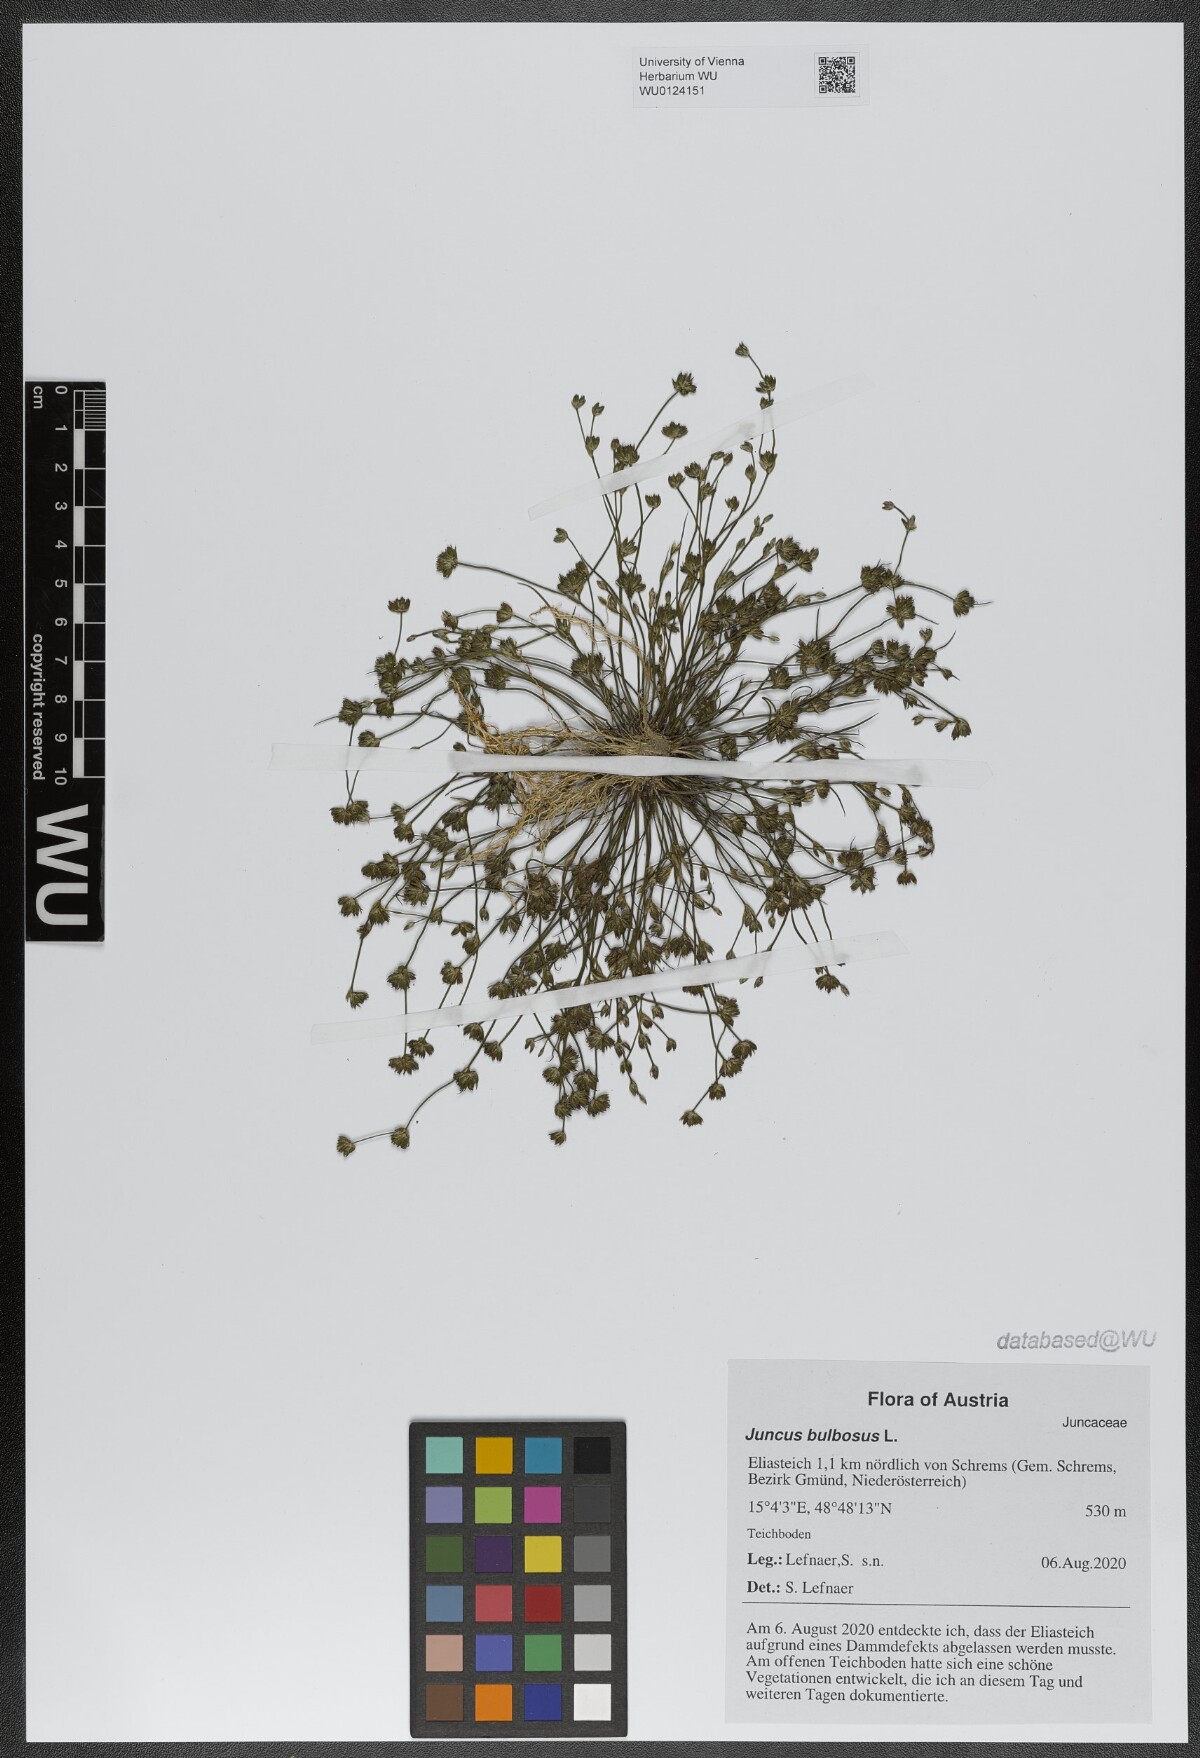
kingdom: Plantae
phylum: Tracheophyta
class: Liliopsida
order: Poales
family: Juncaceae
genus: Juncus
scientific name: Juncus bulbosus
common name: Bulbous rush
